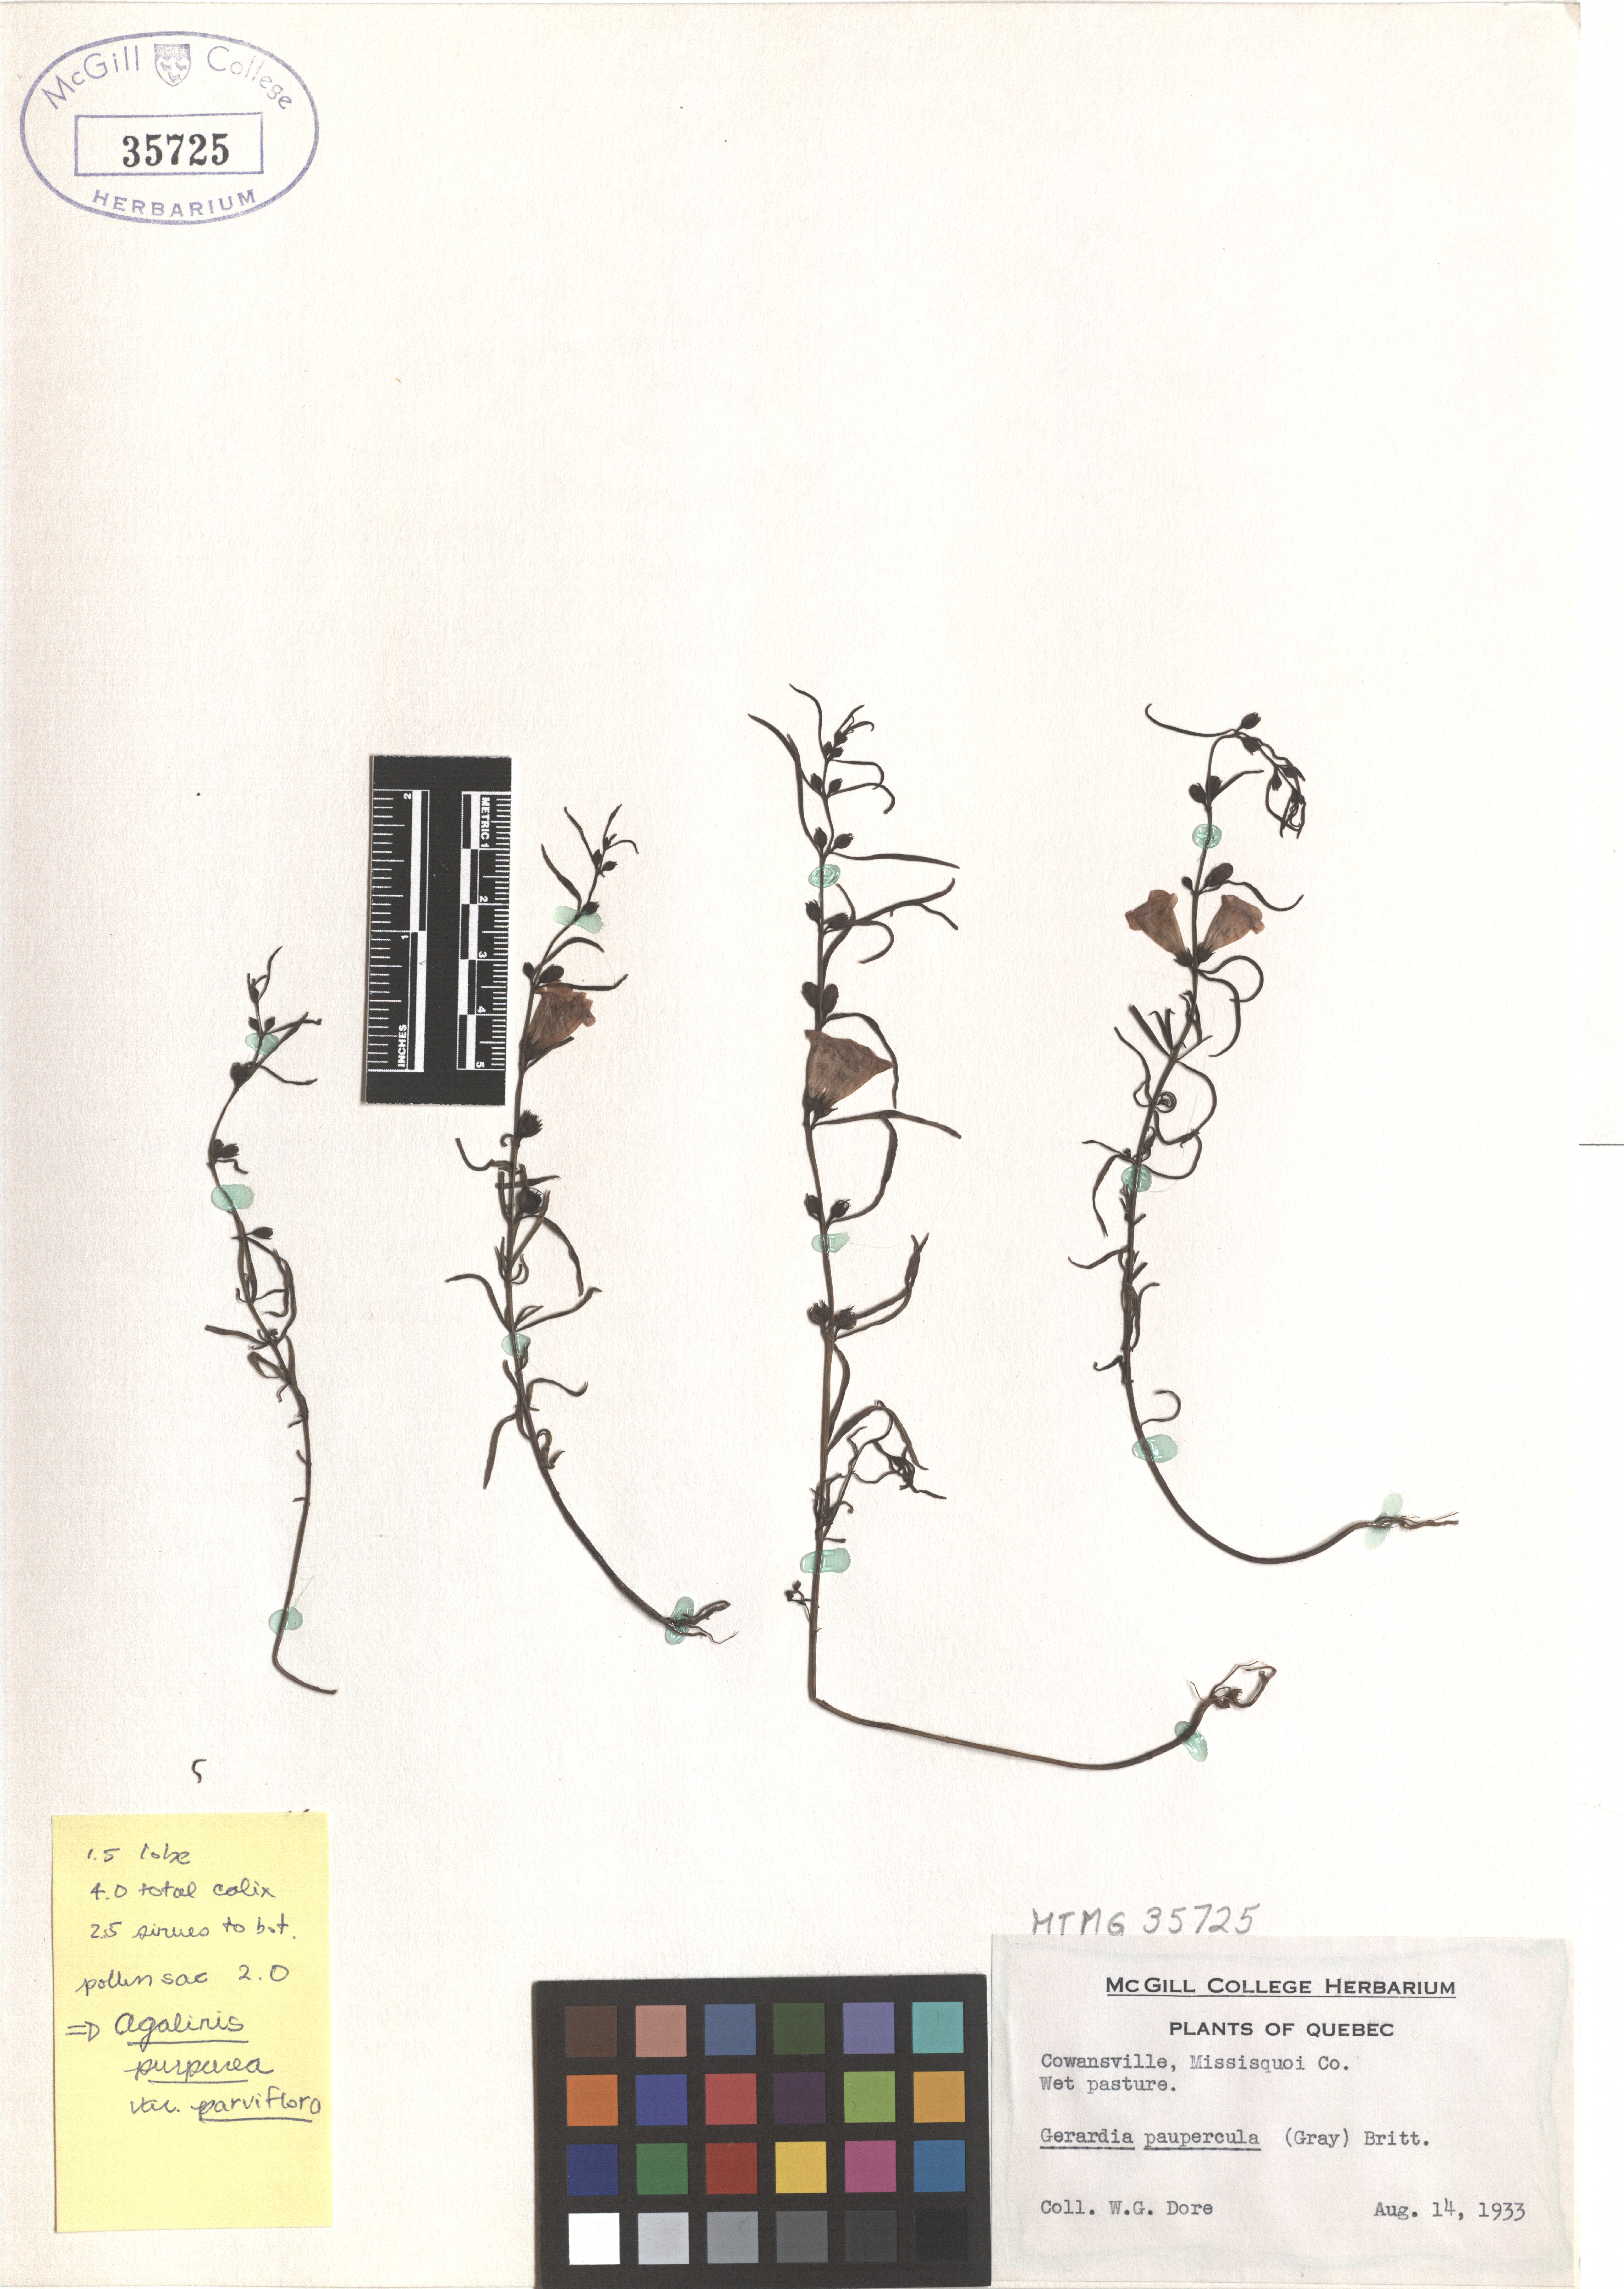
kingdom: Plantae
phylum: Tracheophyta
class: Magnoliopsida
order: Lamiales
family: Orobanchaceae
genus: Agalinis
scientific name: Agalinis purpurea
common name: Purple false foxglove
